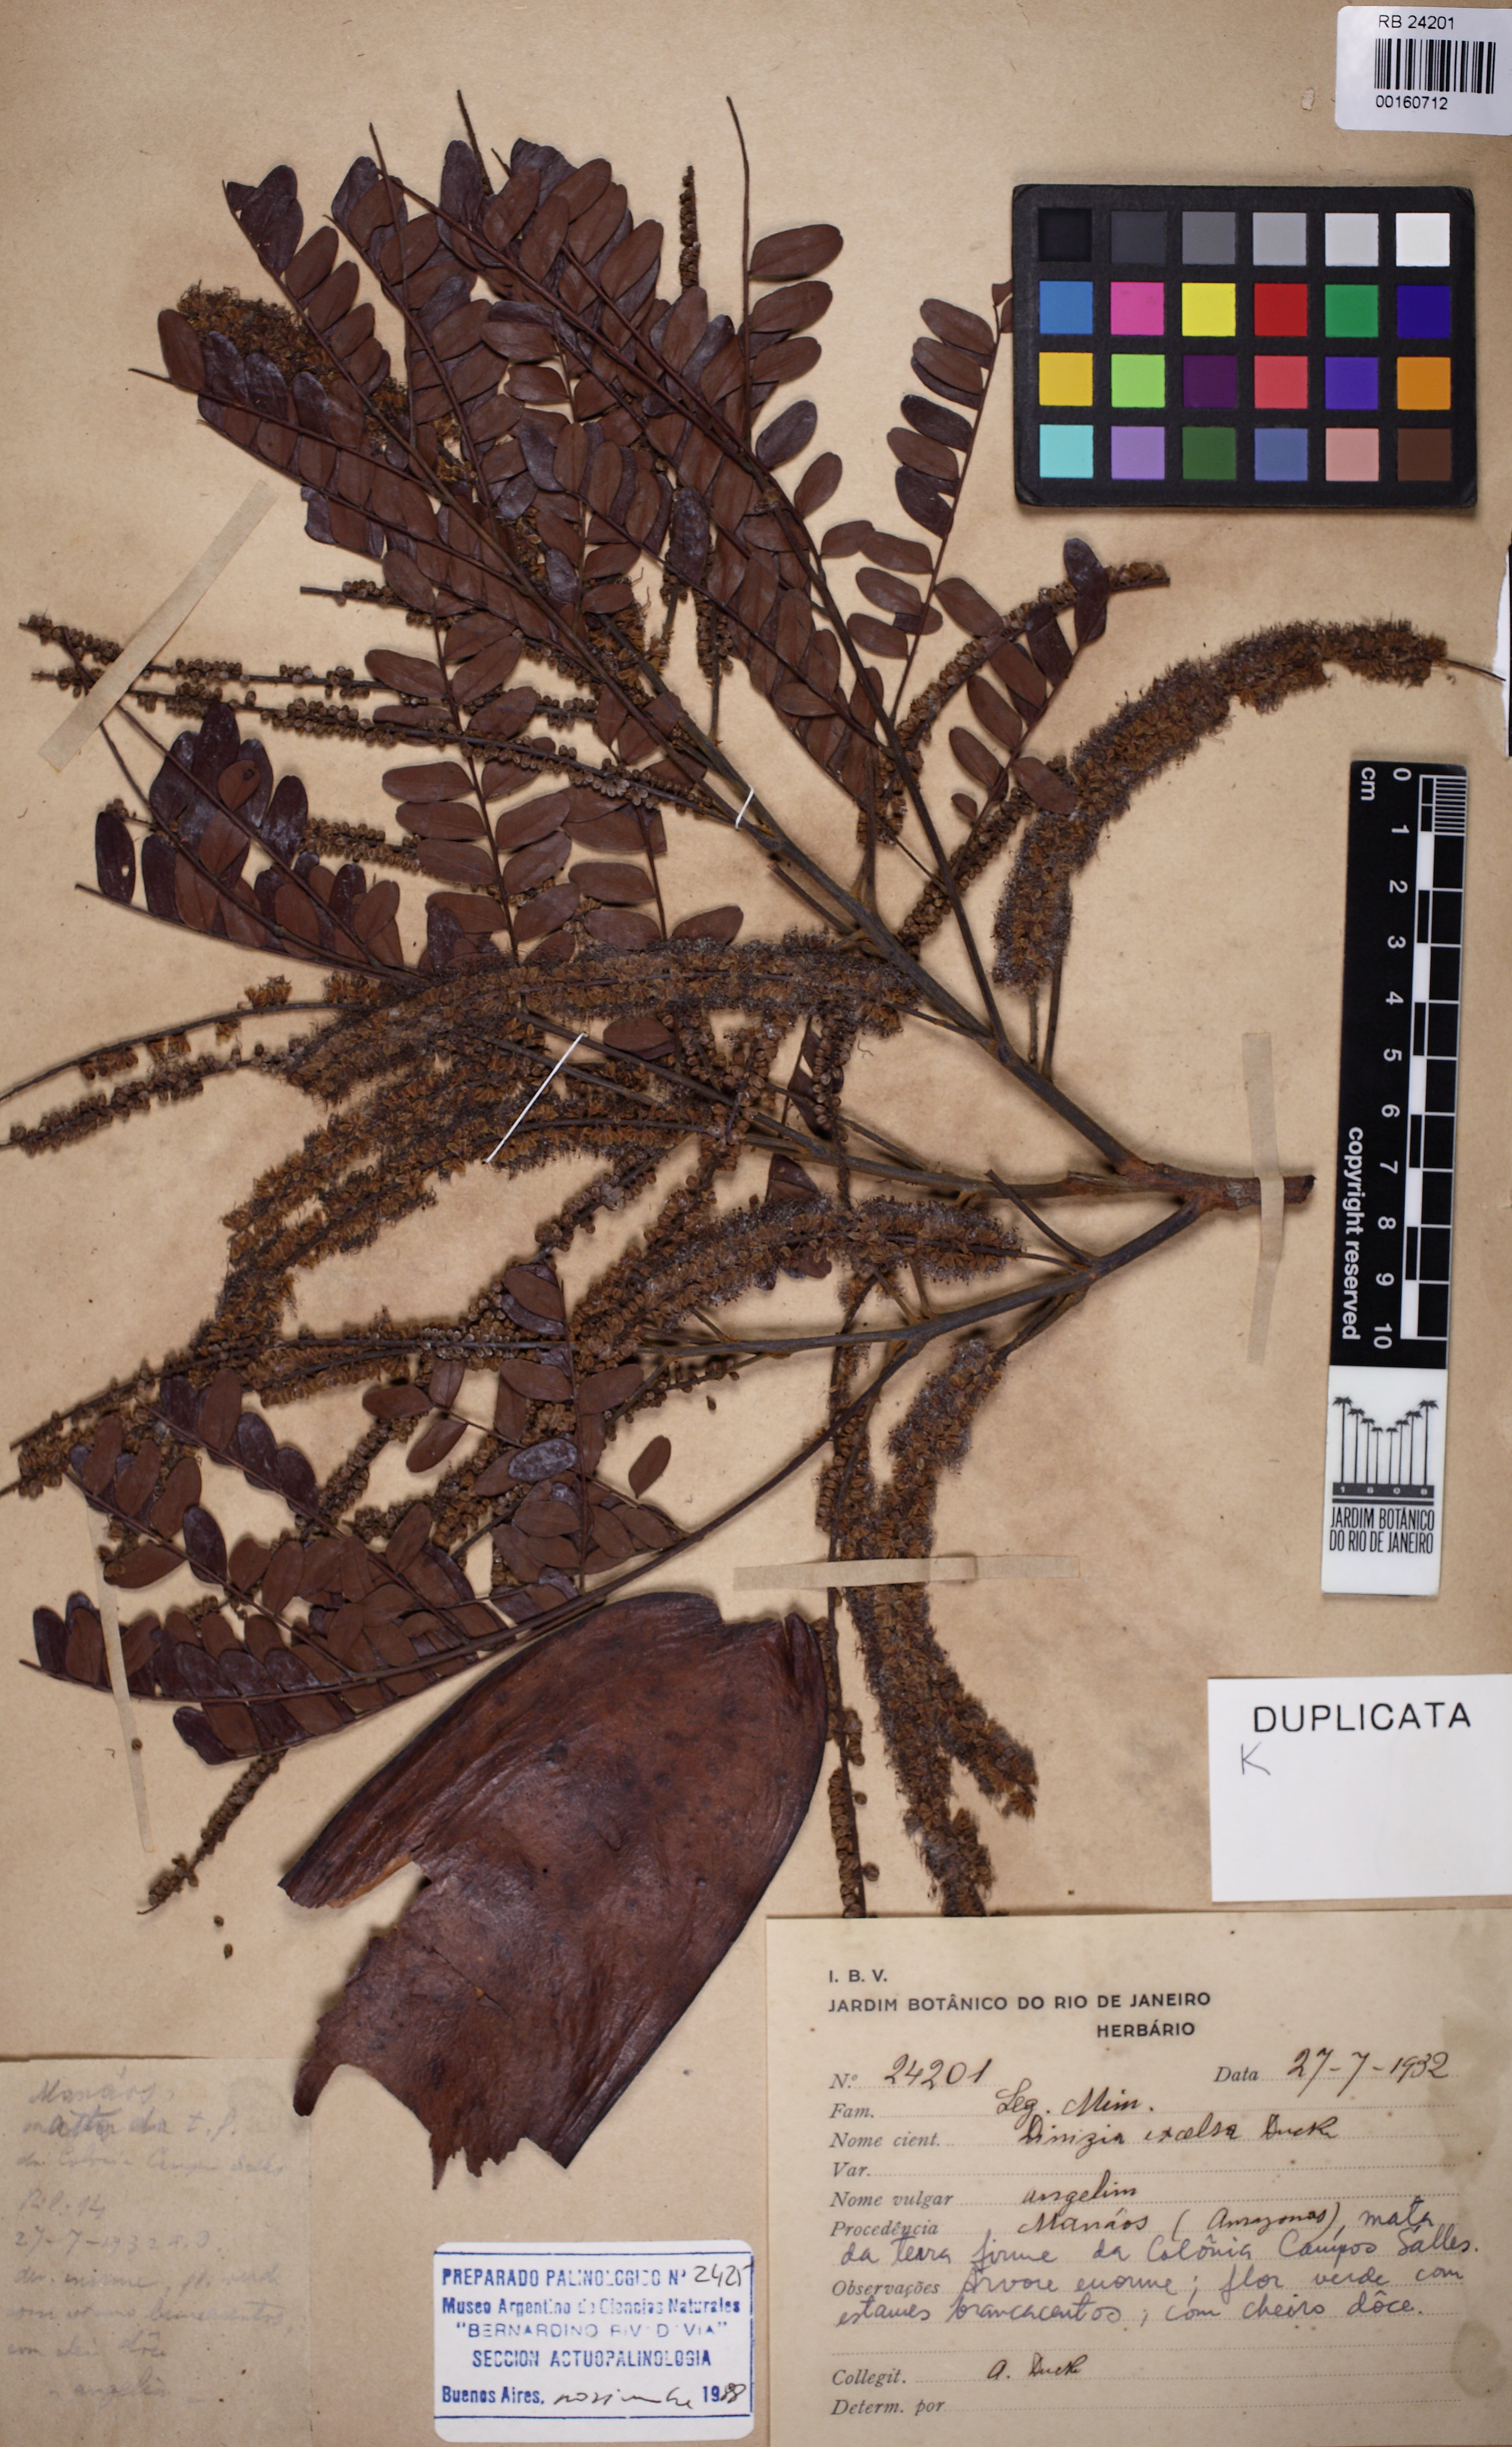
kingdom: Plantae
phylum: Tracheophyta
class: Magnoliopsida
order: Fabales
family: Fabaceae
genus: Dinizia
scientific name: Dinizia excelsa
